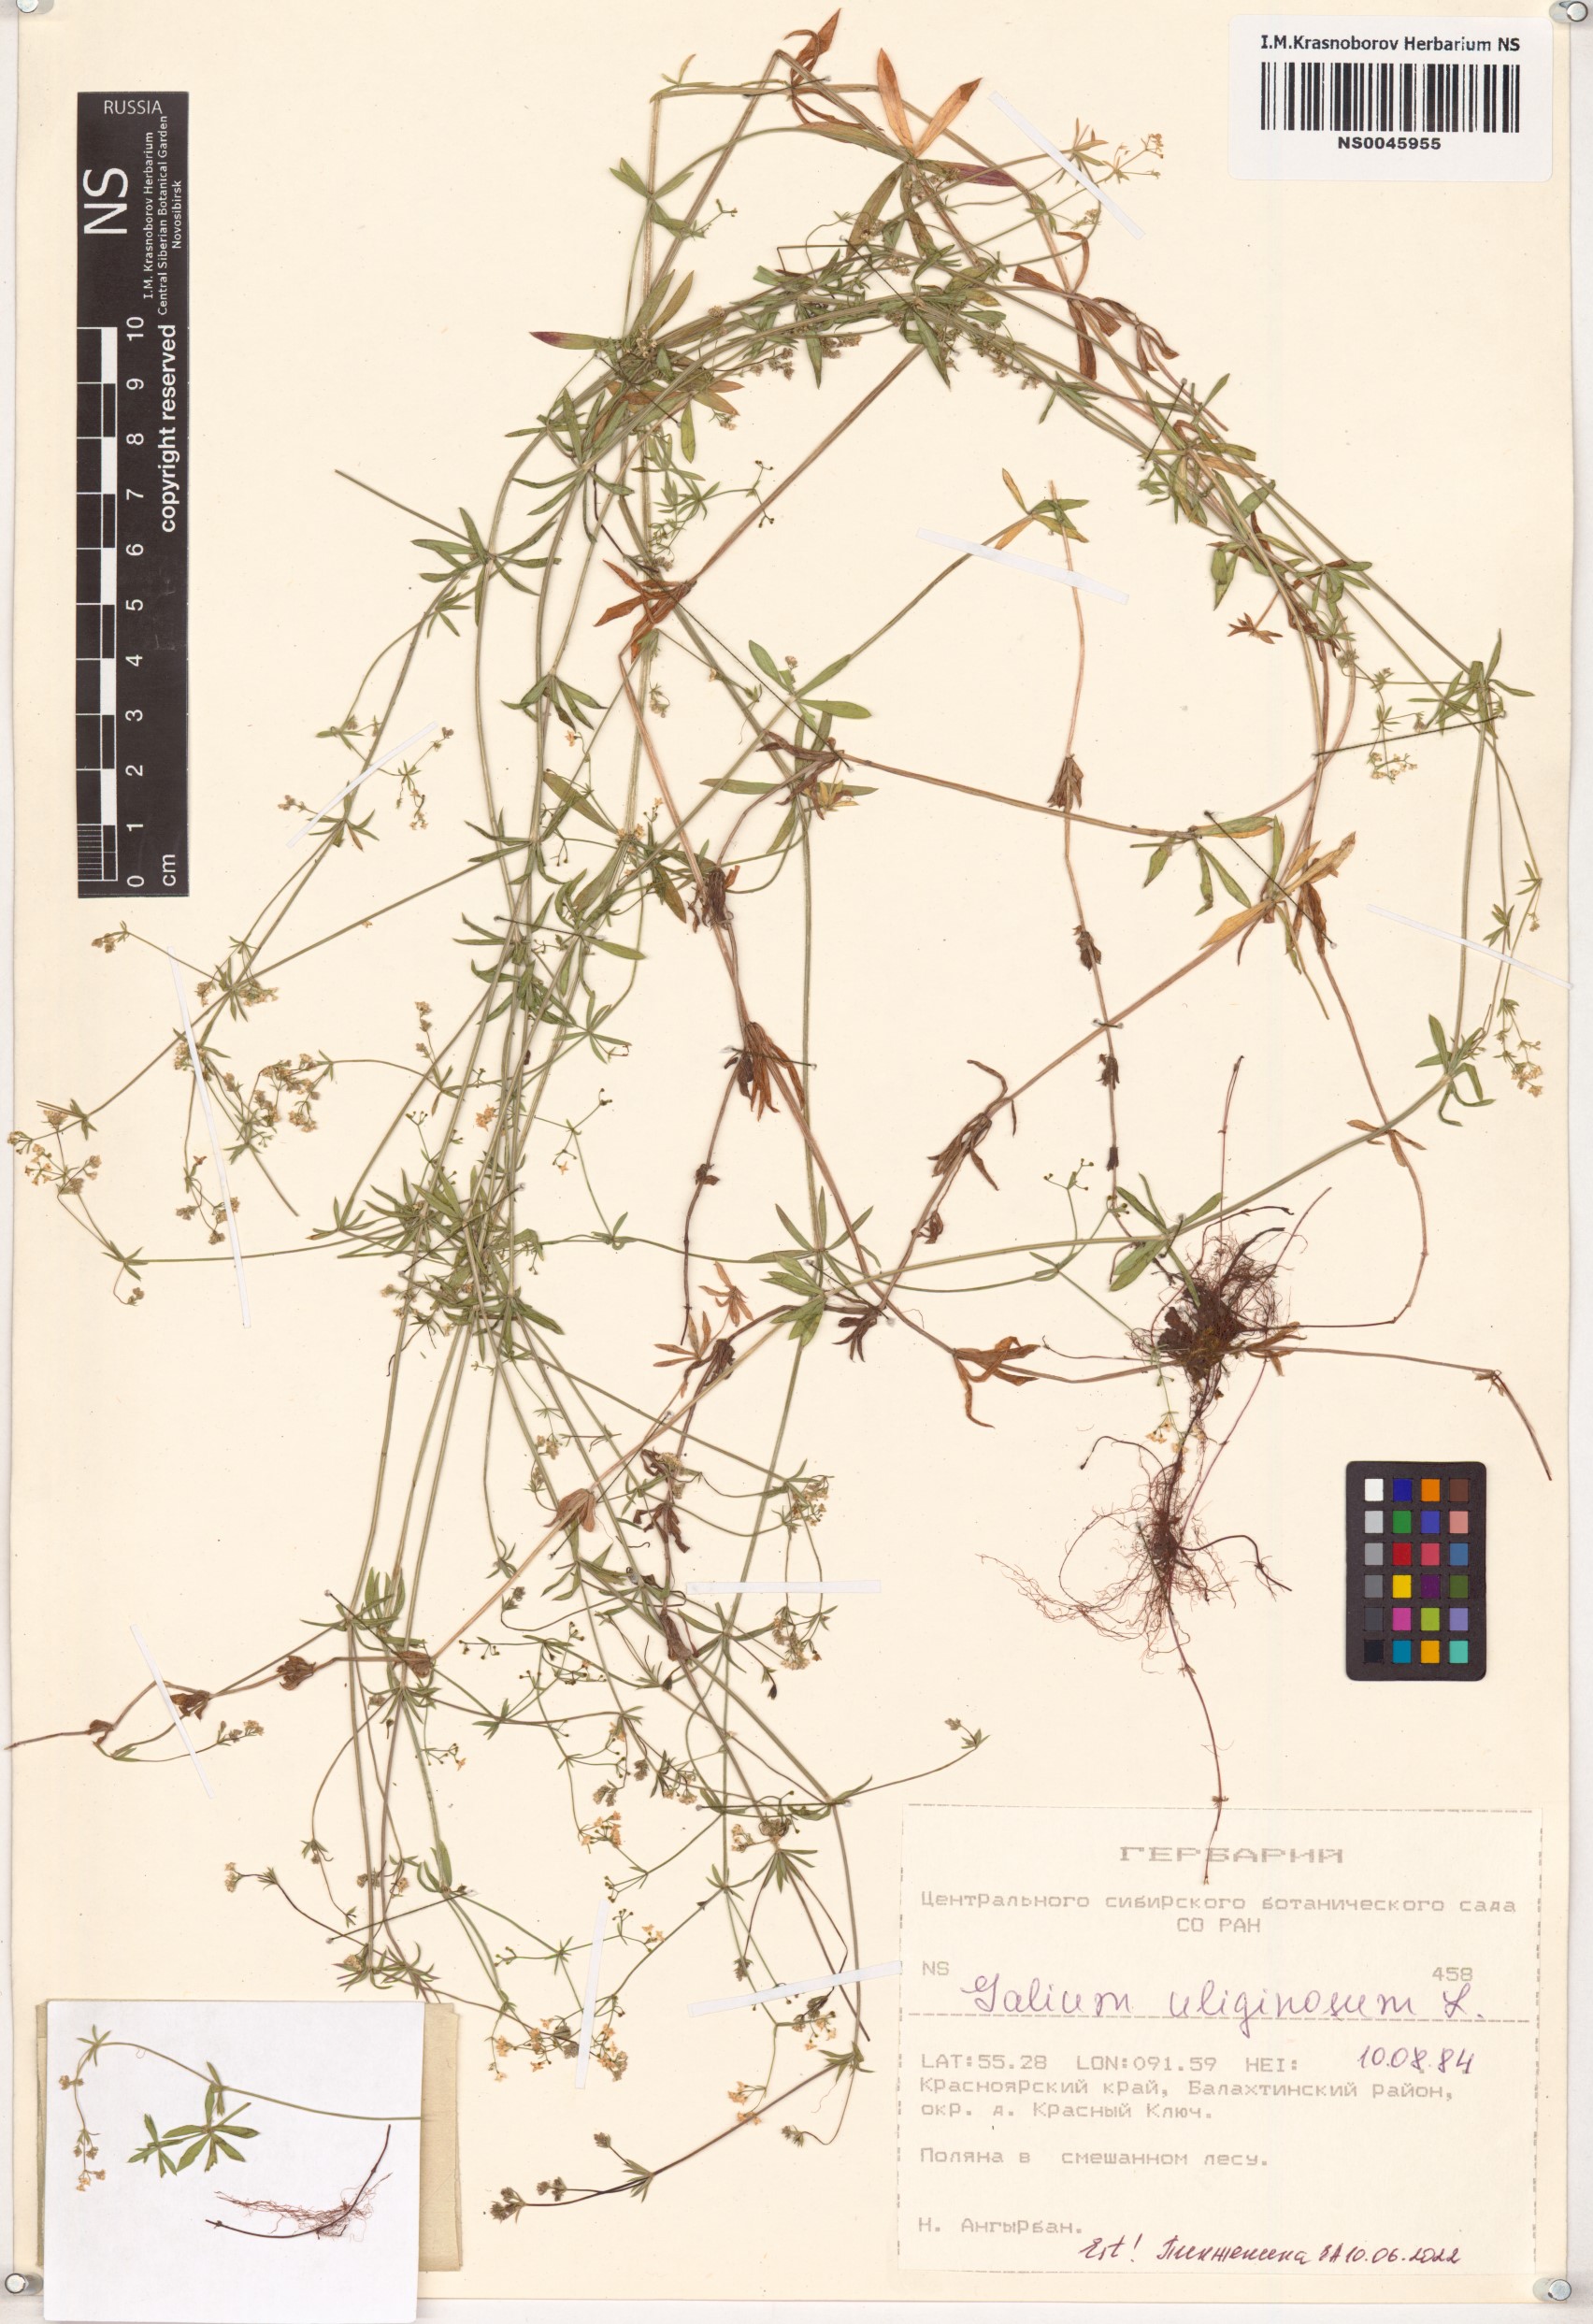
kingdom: Plantae
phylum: Tracheophyta
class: Magnoliopsida
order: Gentianales
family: Rubiaceae
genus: Galium
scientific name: Galium uliginosum
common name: Fen bedstraw
